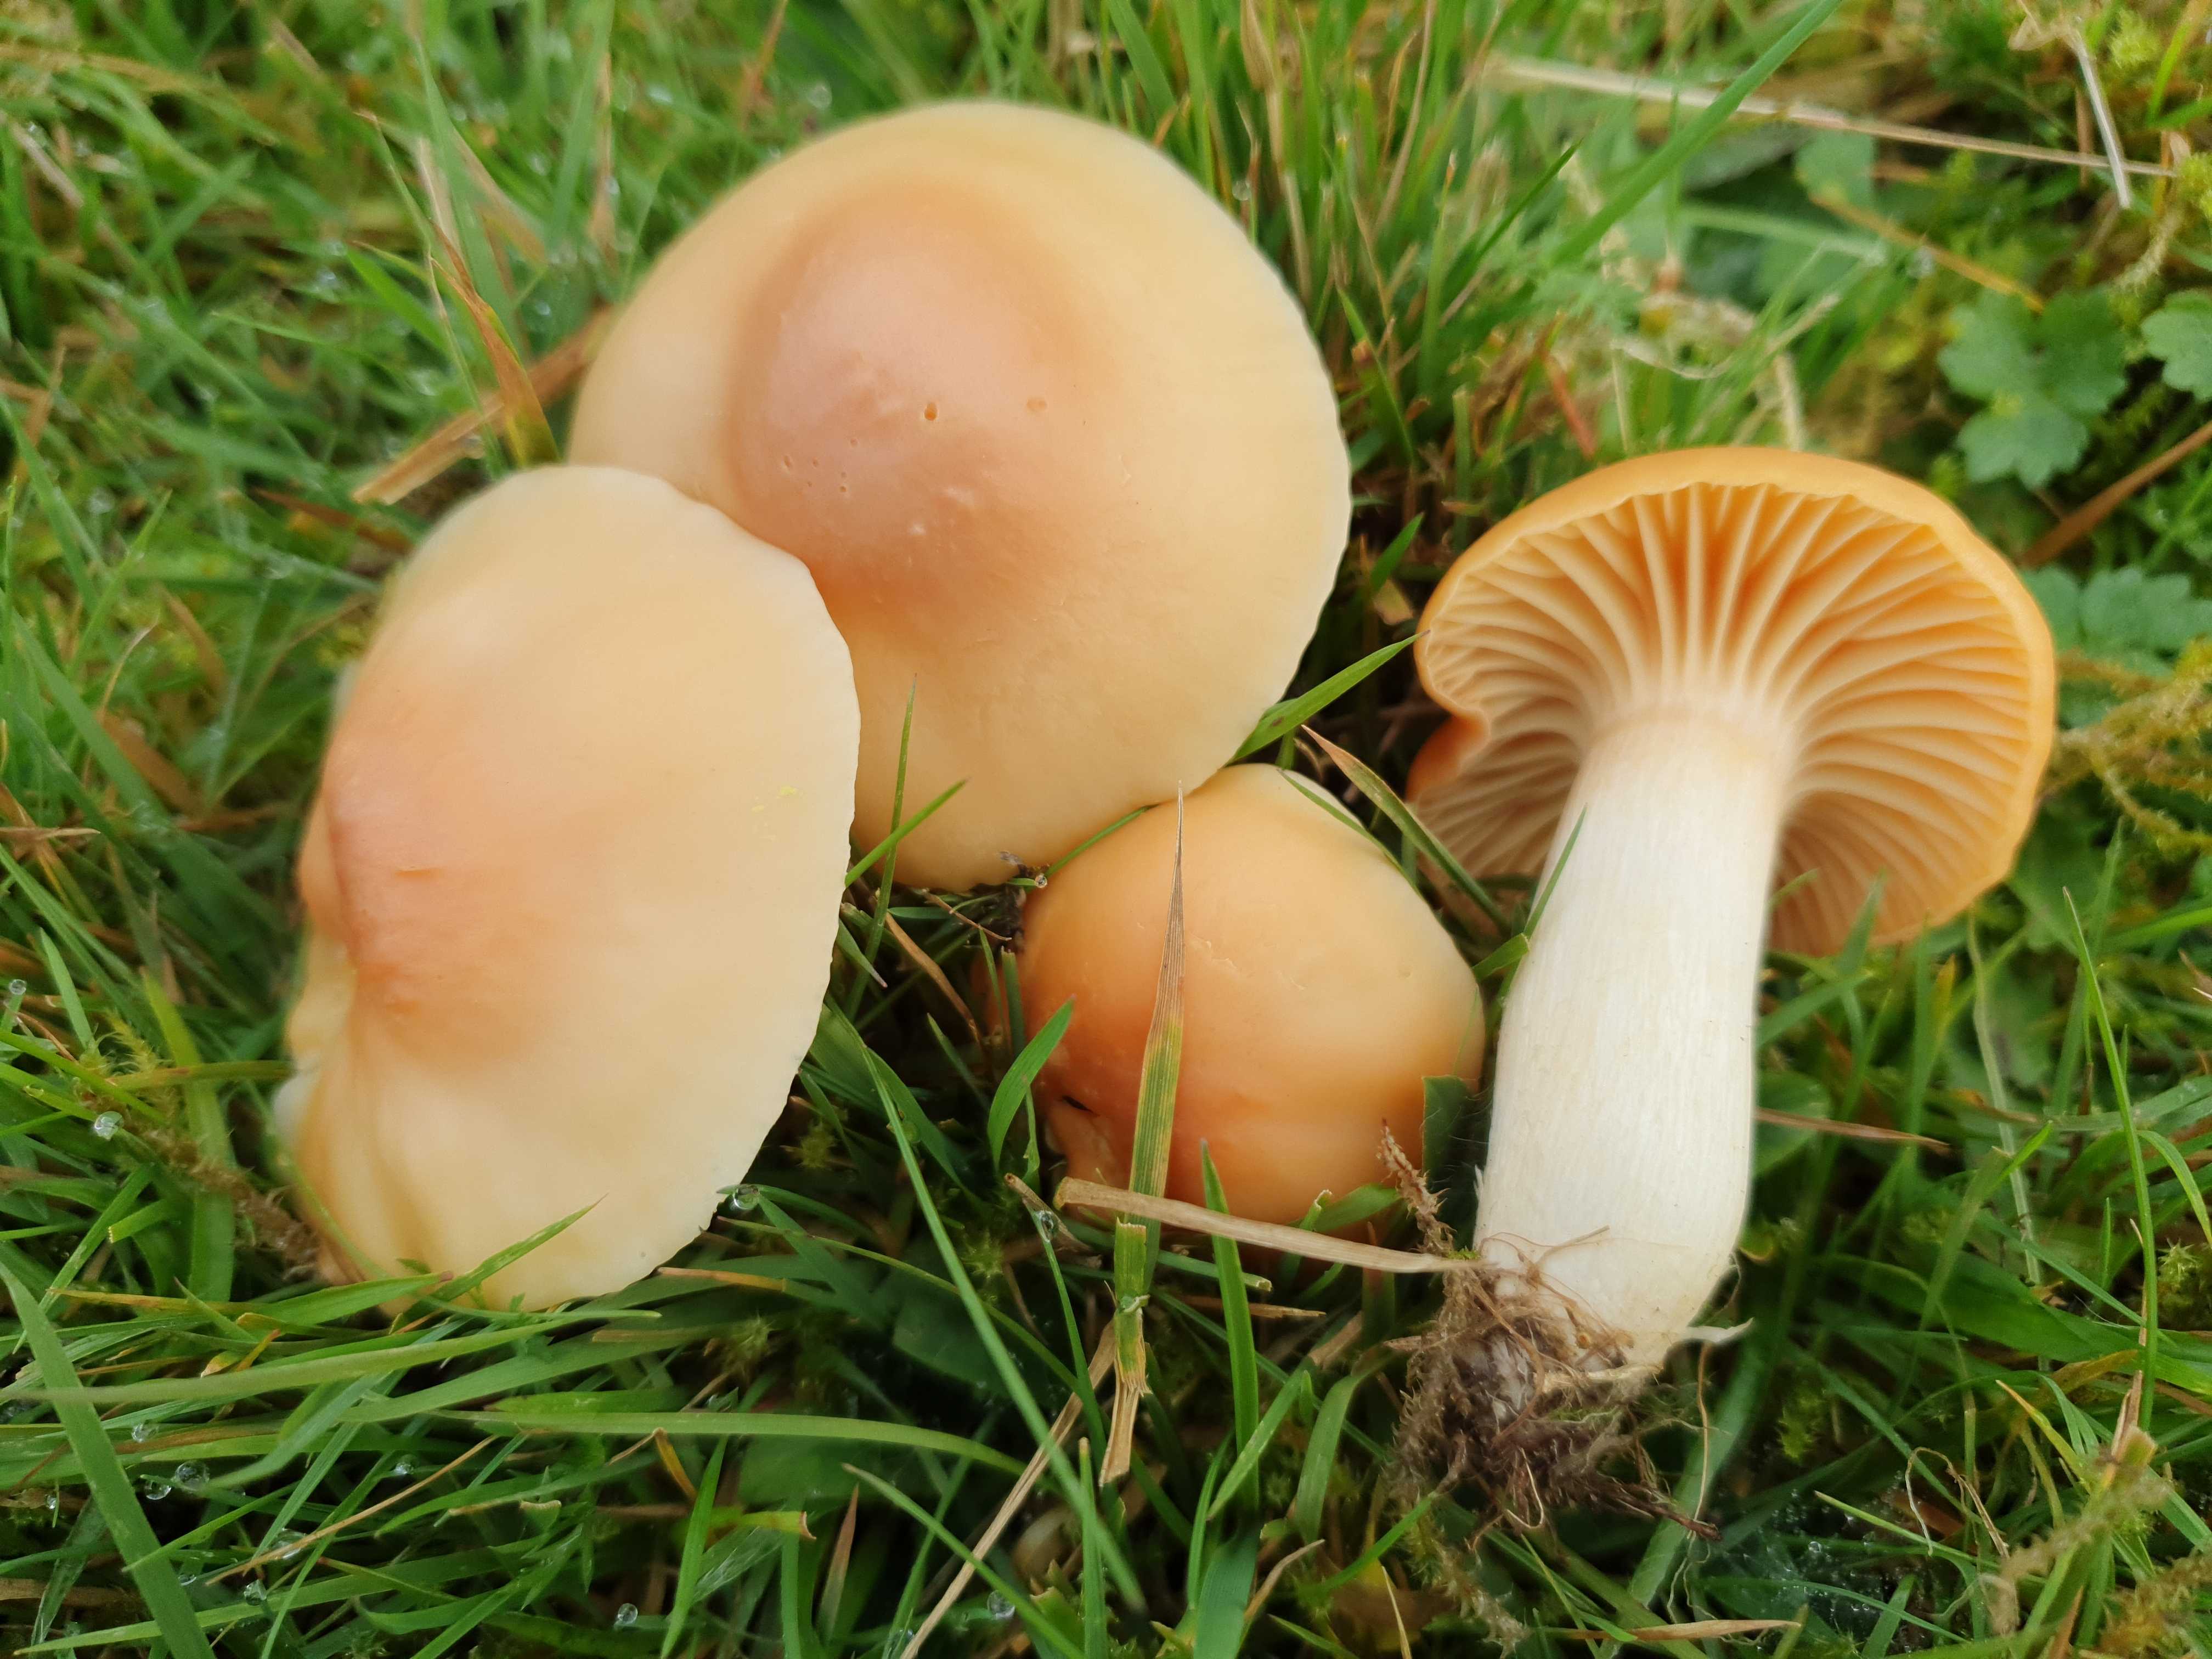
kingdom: Fungi
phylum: Basidiomycota
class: Agaricomycetes
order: Agaricales
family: Hygrophoraceae
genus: Cuphophyllus
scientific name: Cuphophyllus pratensis
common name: eng-vokshat
